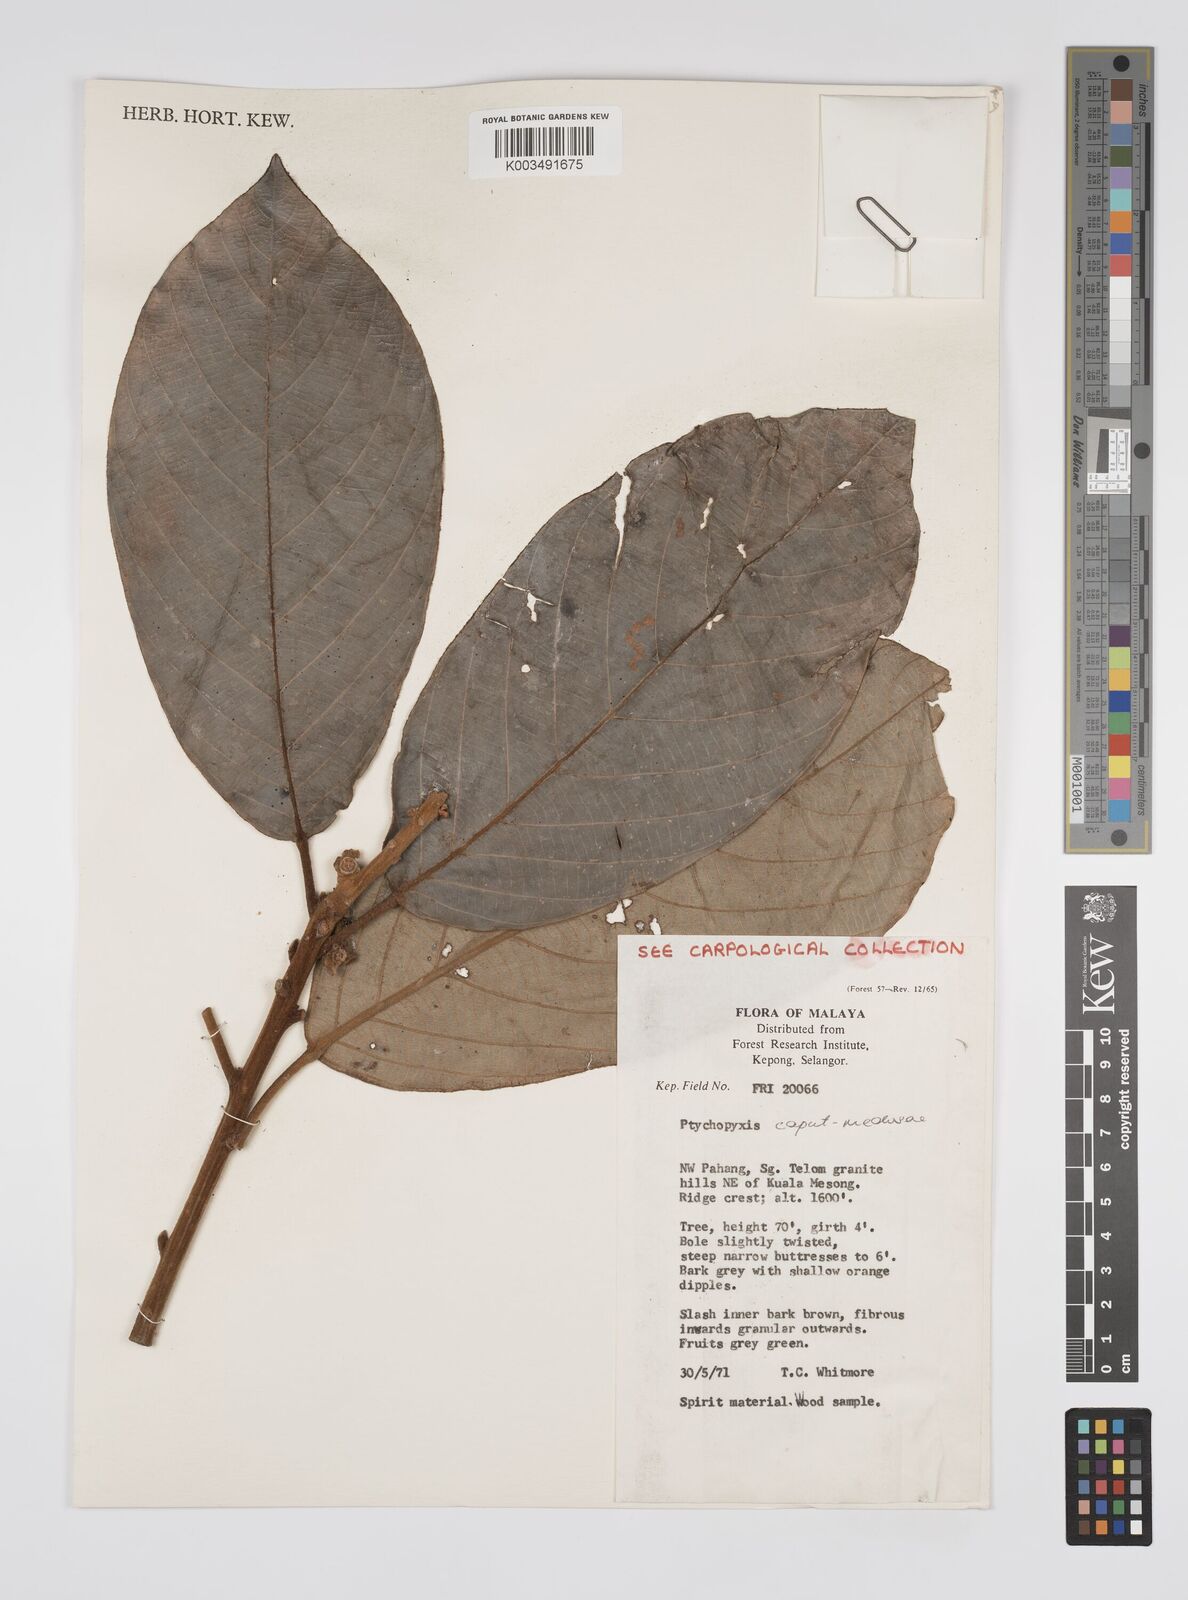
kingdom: Plantae
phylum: Tracheophyta
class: Magnoliopsida
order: Malpighiales
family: Euphorbiaceae
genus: Ptychopyxis
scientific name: Ptychopyxis caput-medusae
